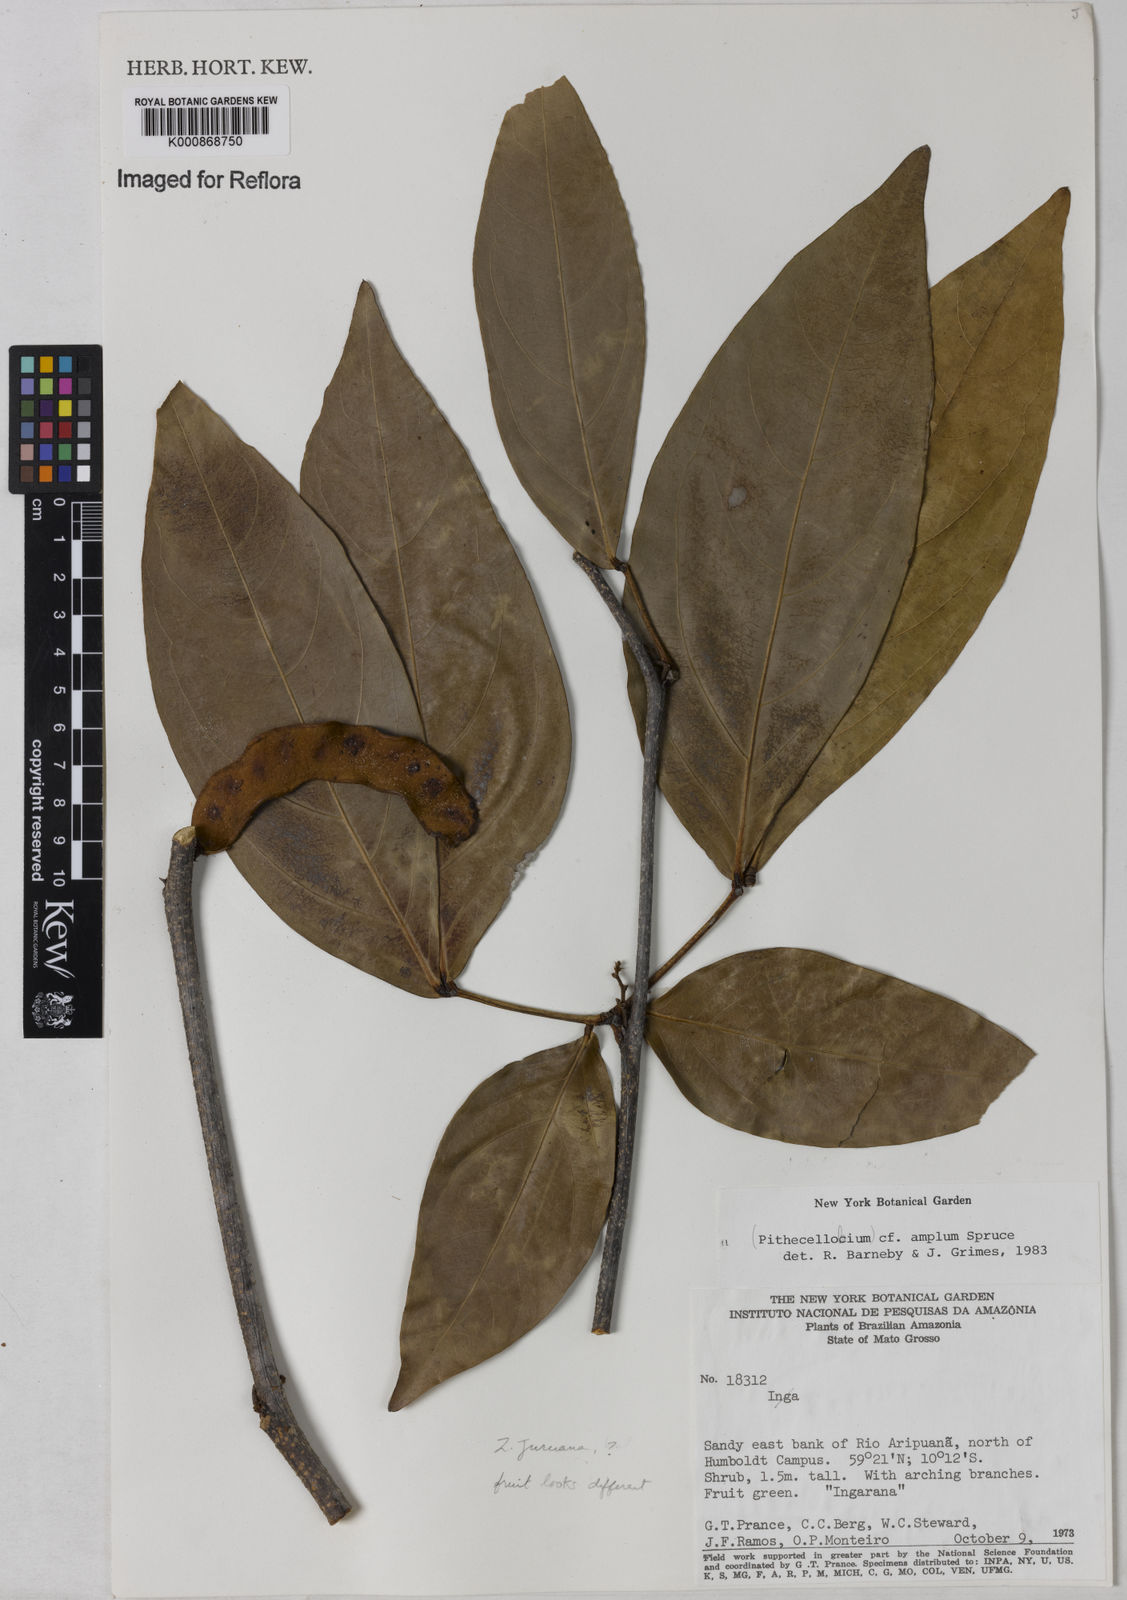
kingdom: Plantae
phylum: Tracheophyta
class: Magnoliopsida
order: Fabales
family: Fabaceae
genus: Zygia
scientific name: Zygia juruana
